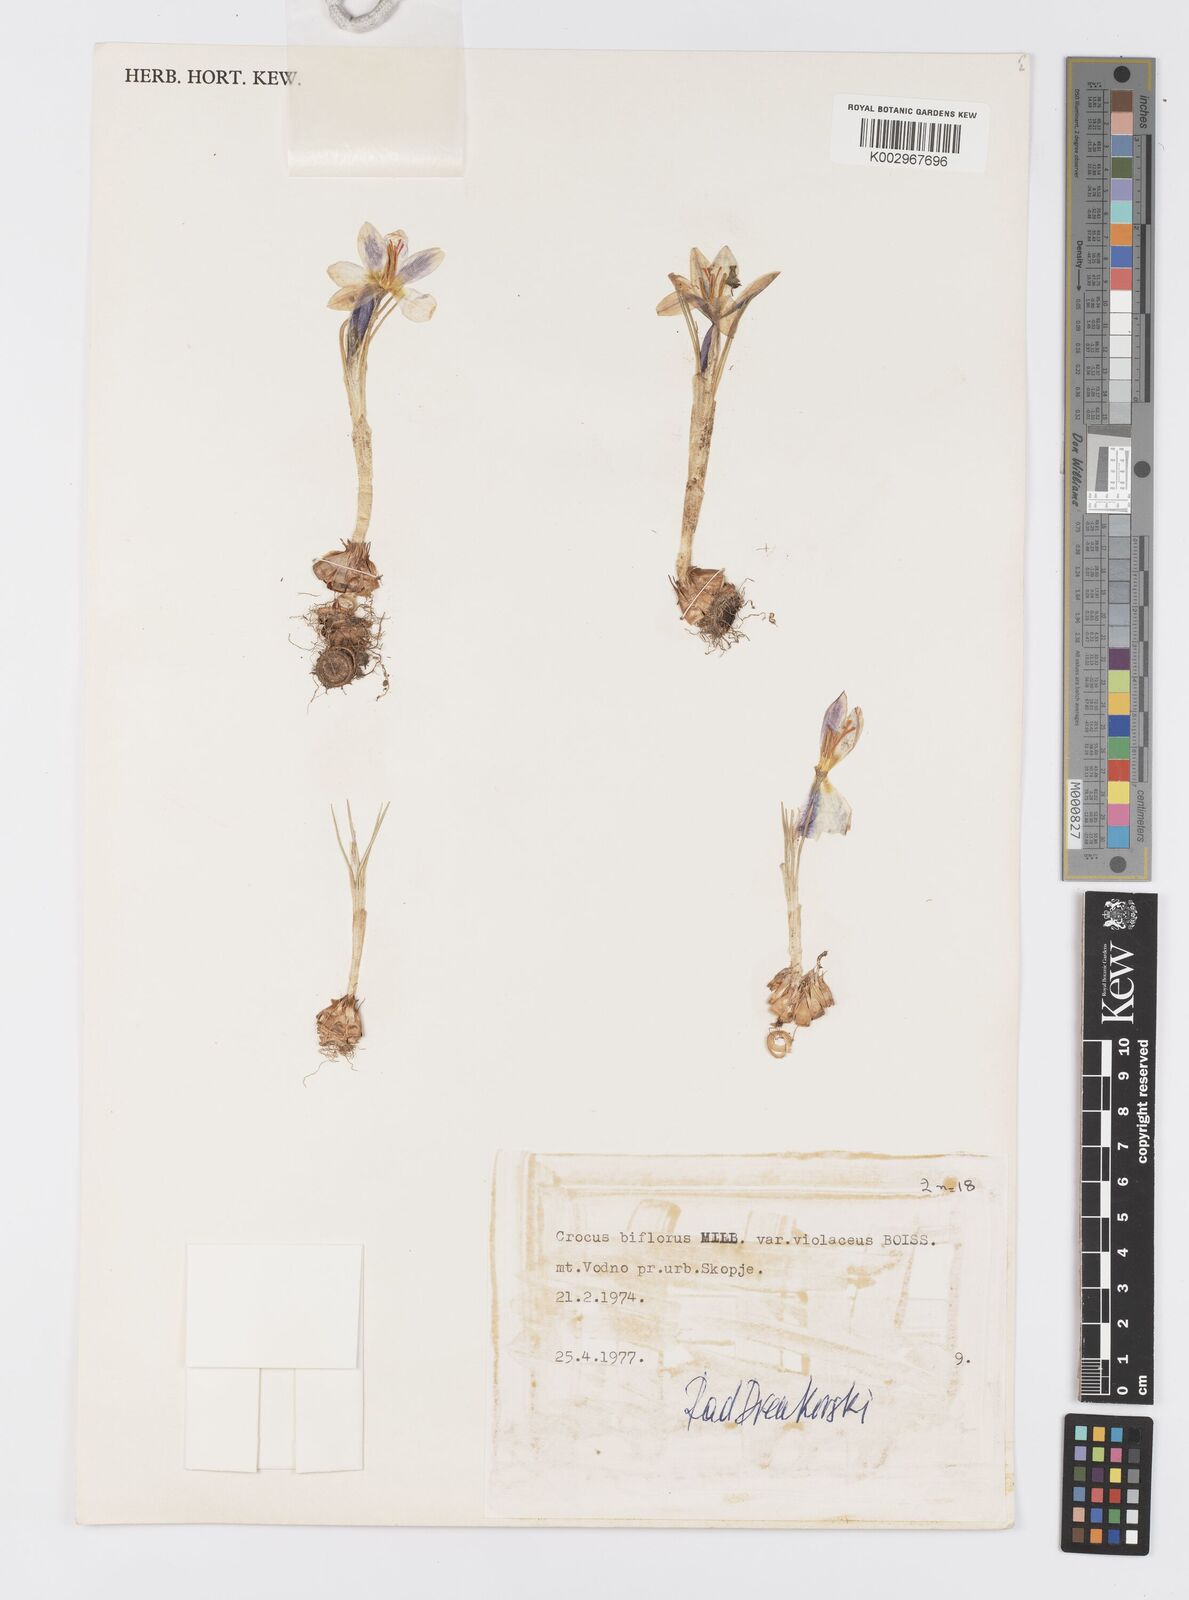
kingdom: Plantae
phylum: Tracheophyta
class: Liliopsida
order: Asparagales
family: Iridaceae
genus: Crocus
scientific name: Crocus biflorus
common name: Silvery crocus
